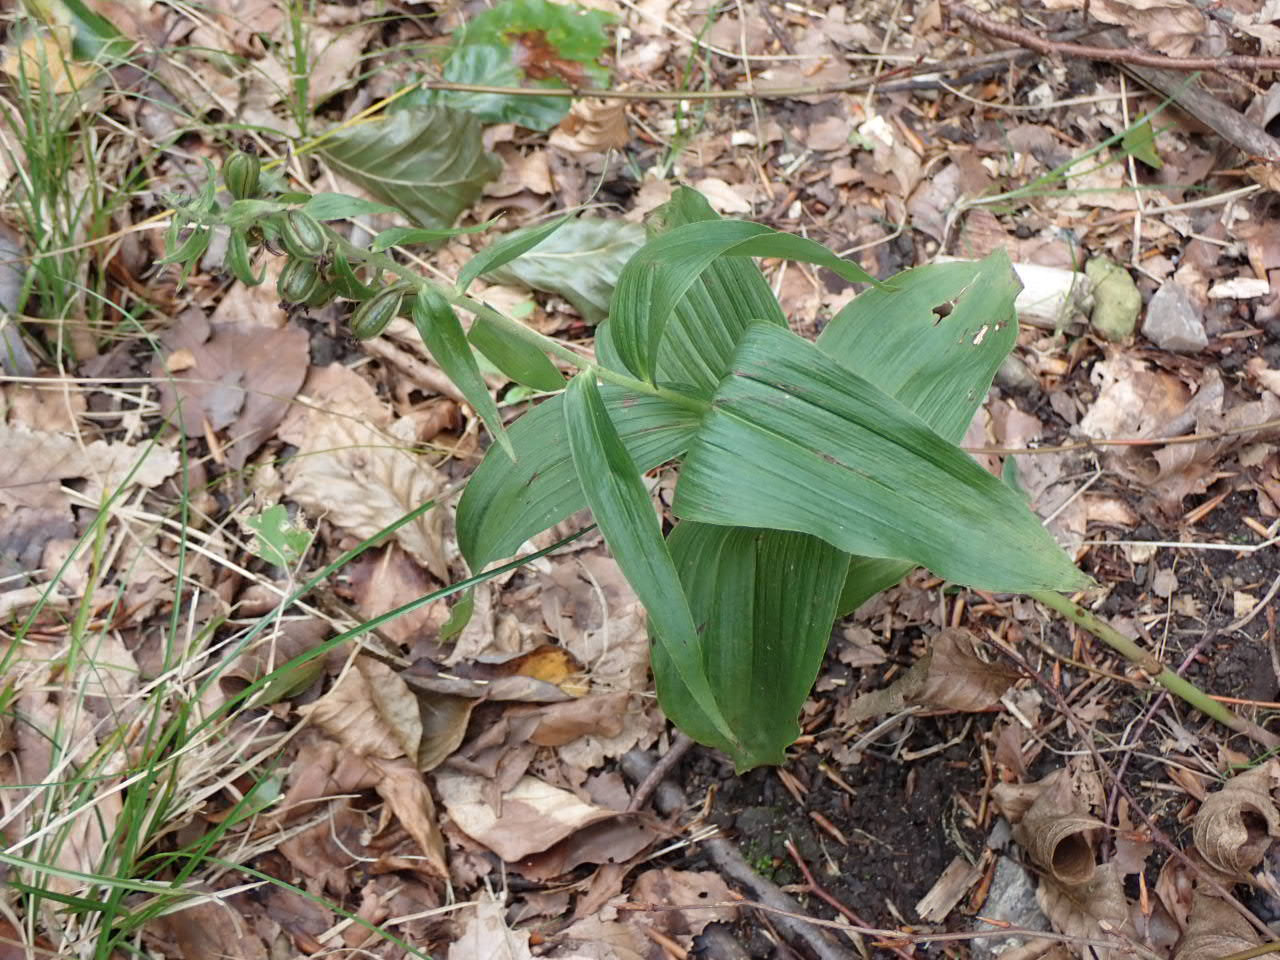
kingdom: Plantae
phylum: Tracheophyta
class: Liliopsida
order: Asparagales
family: Orchidaceae
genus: Epipactis
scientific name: Epipactis helleborine
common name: Skov-hullæbe
